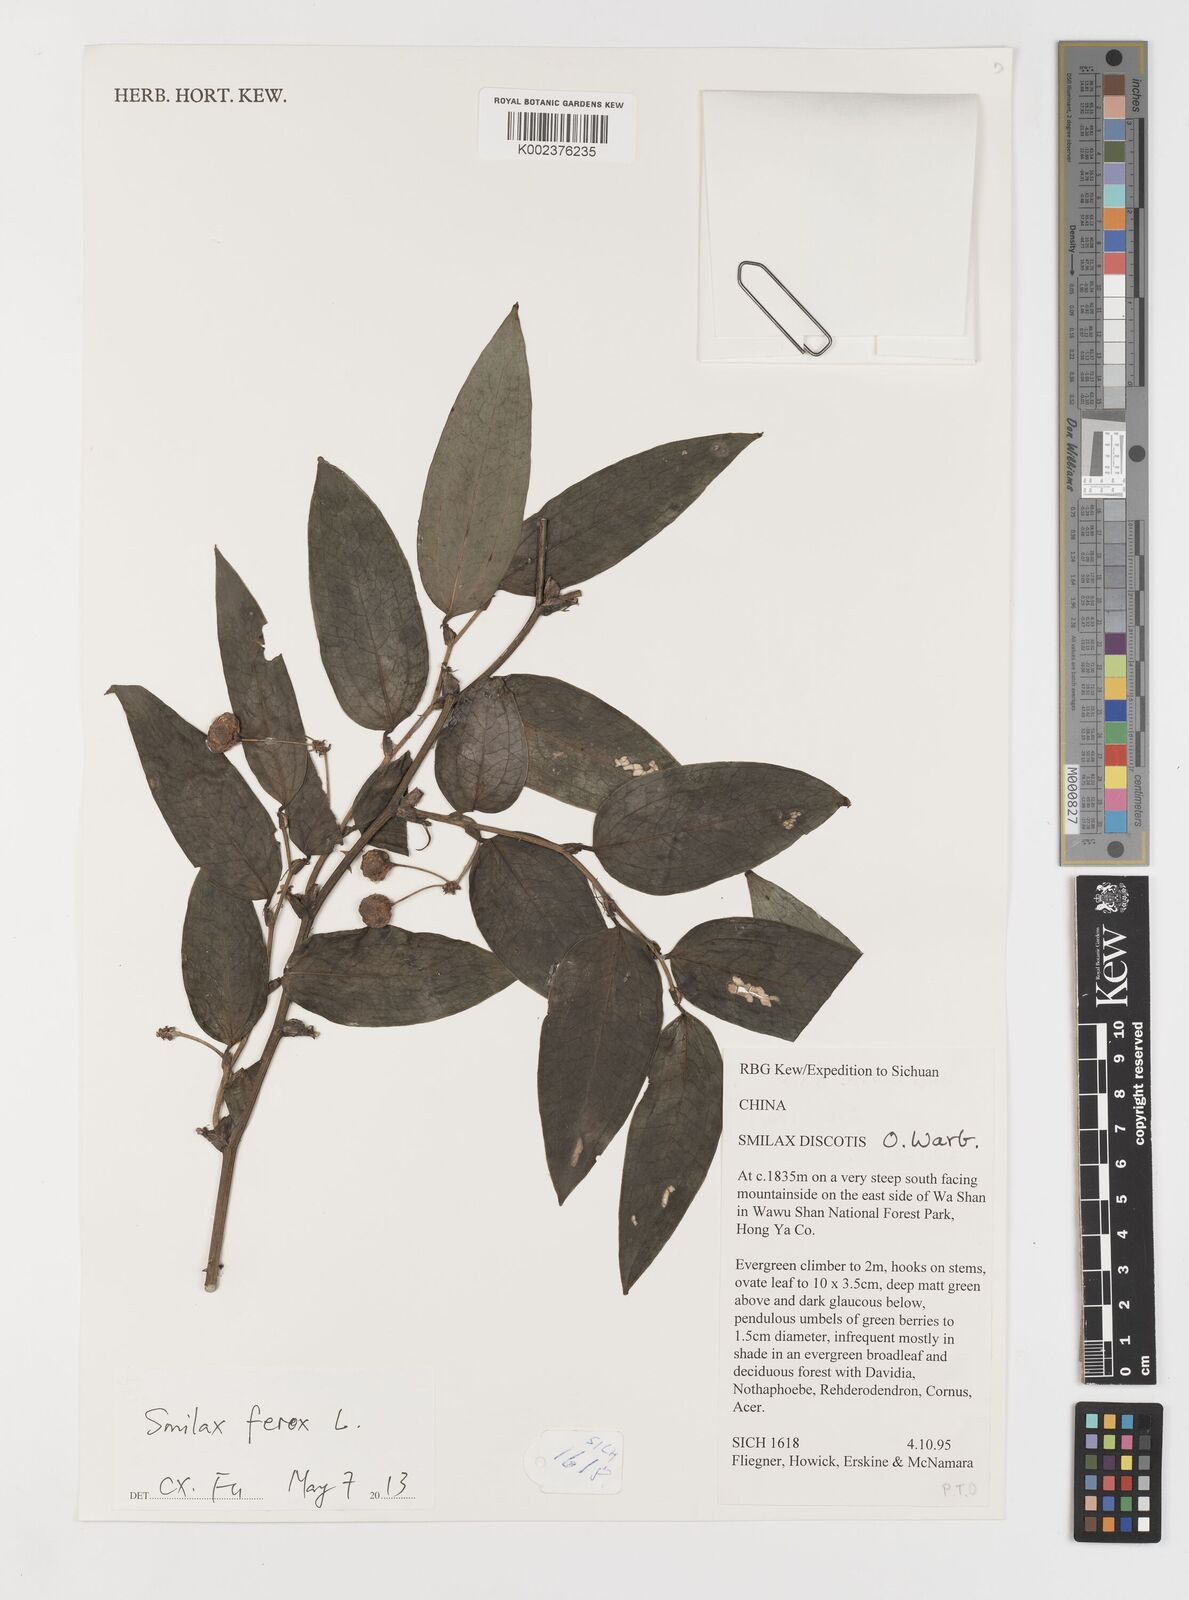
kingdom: Plantae
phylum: Tracheophyta
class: Liliopsida
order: Liliales
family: Smilacaceae
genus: Smilax
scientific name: Smilax ferox
